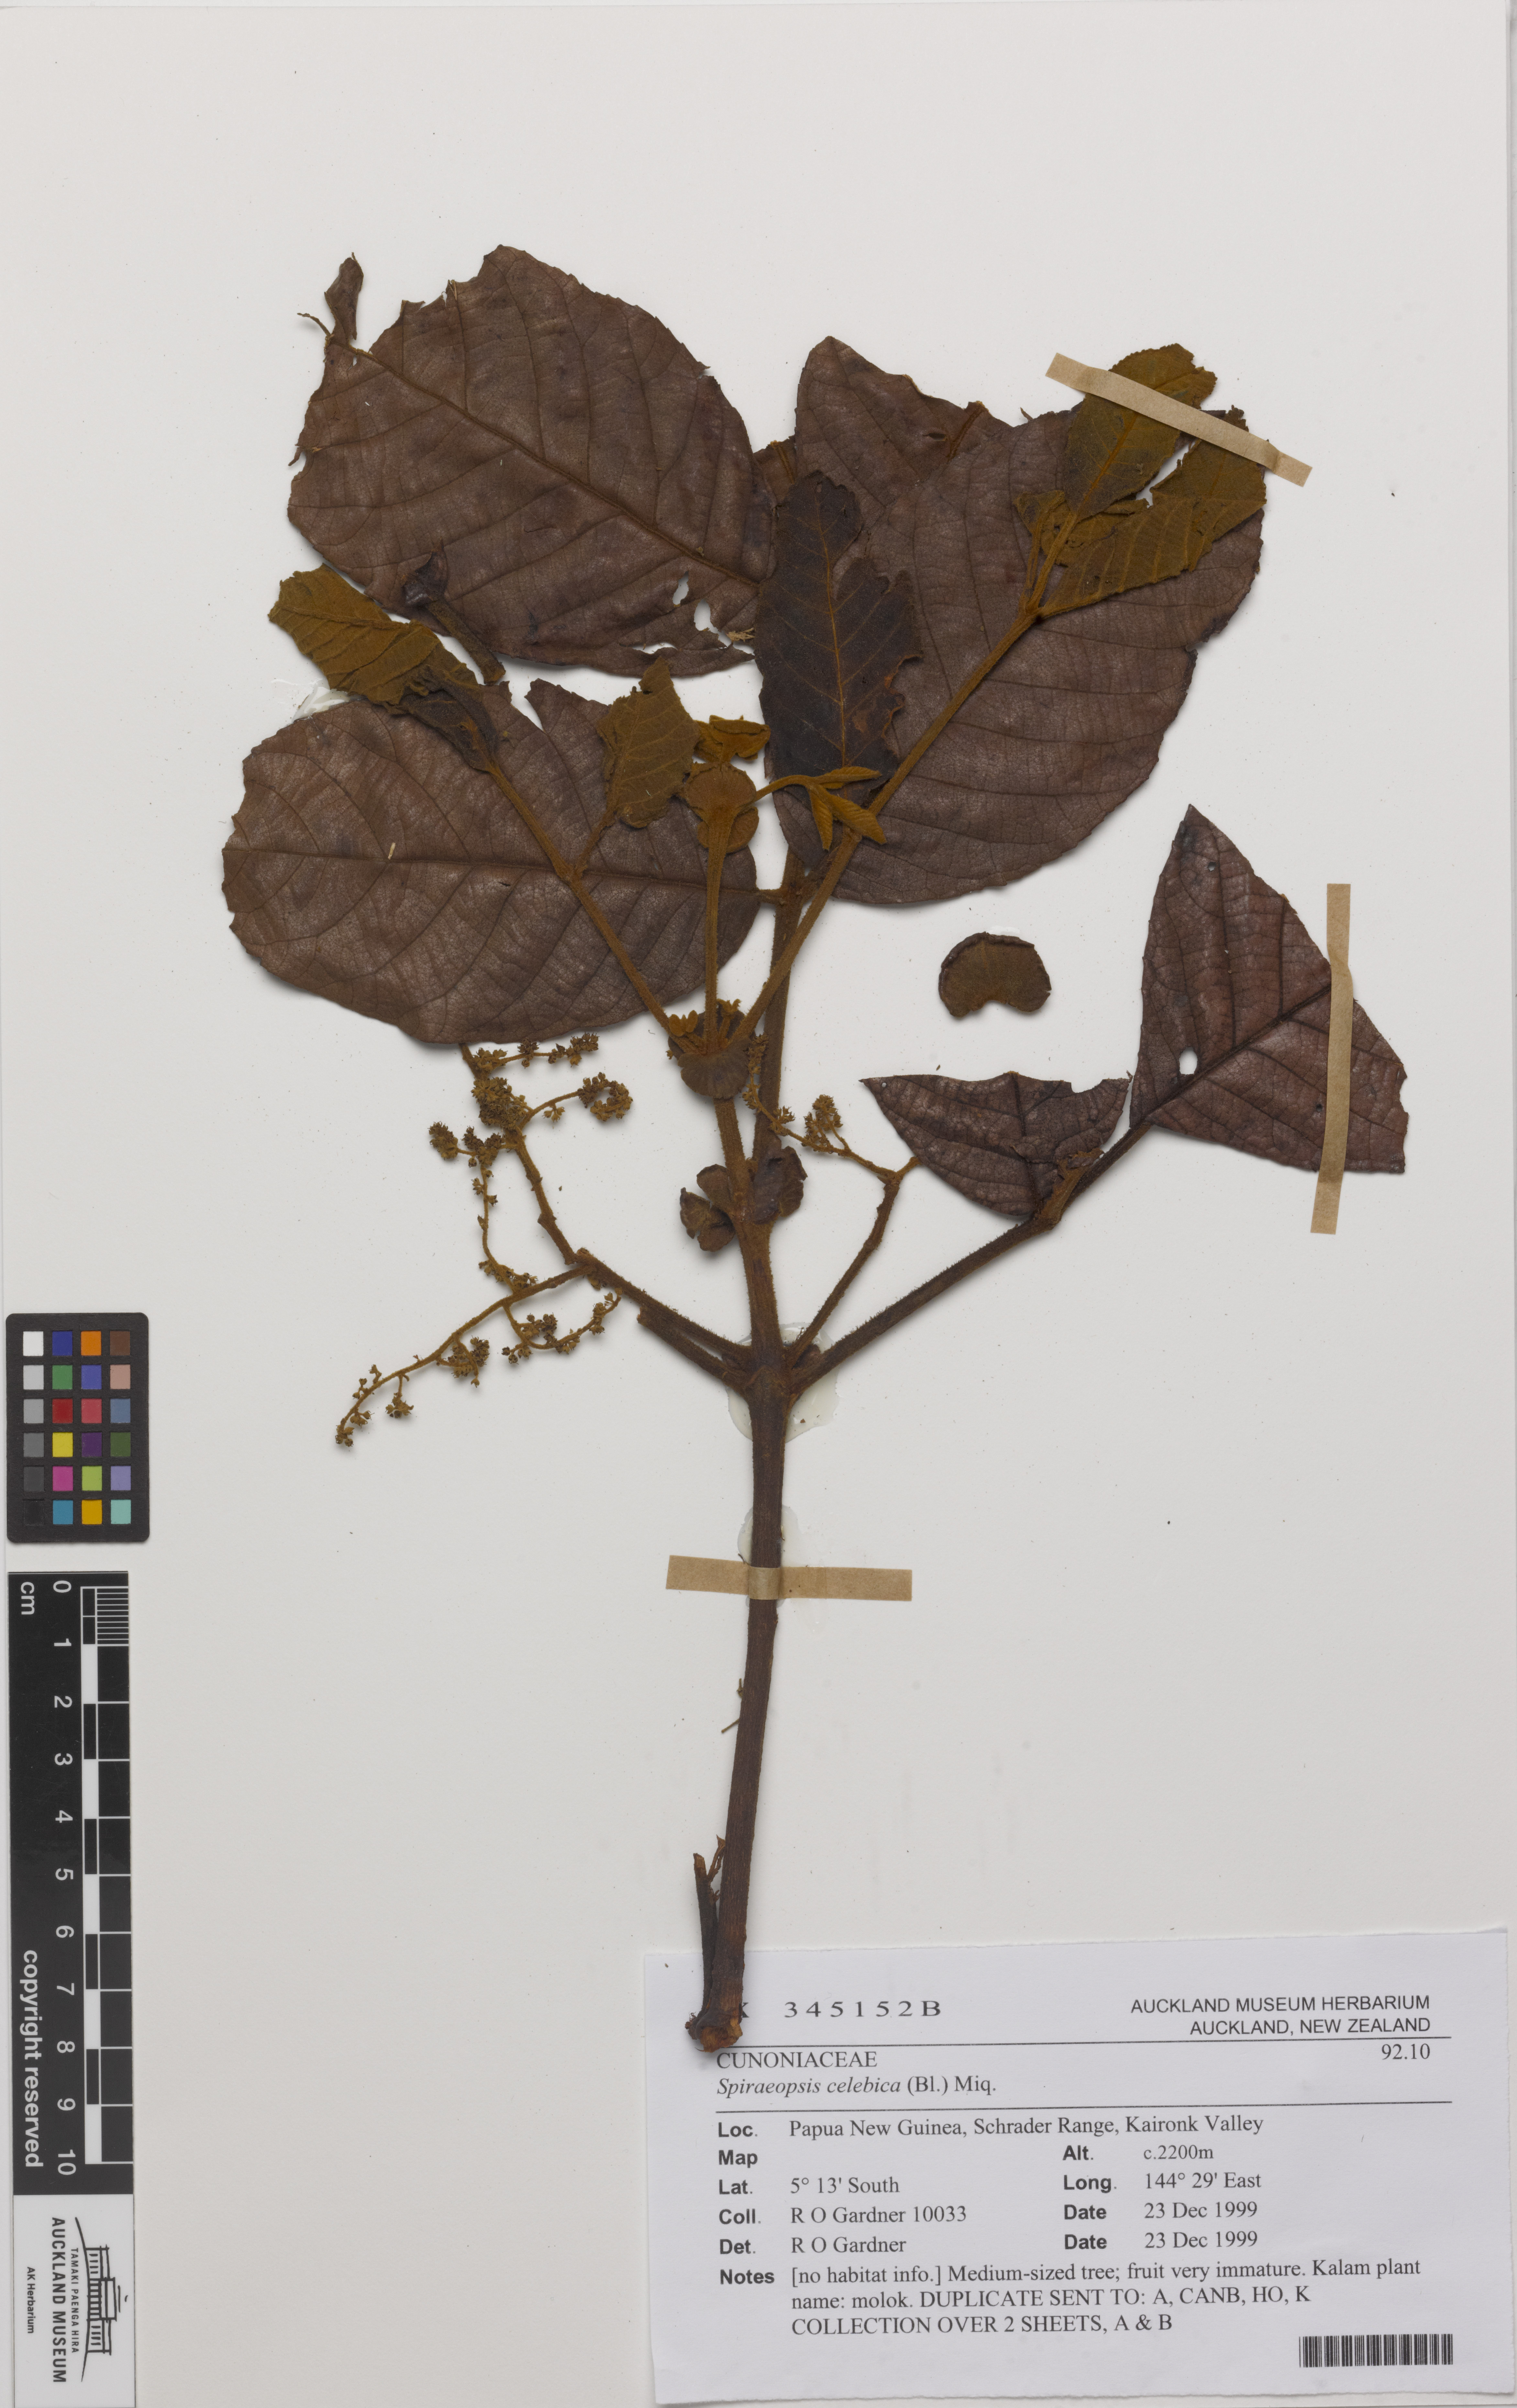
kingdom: Plantae
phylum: Tracheophyta
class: Magnoliopsida
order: Oxalidales
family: Cunoniaceae
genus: Ackama
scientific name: Ackama celebica
